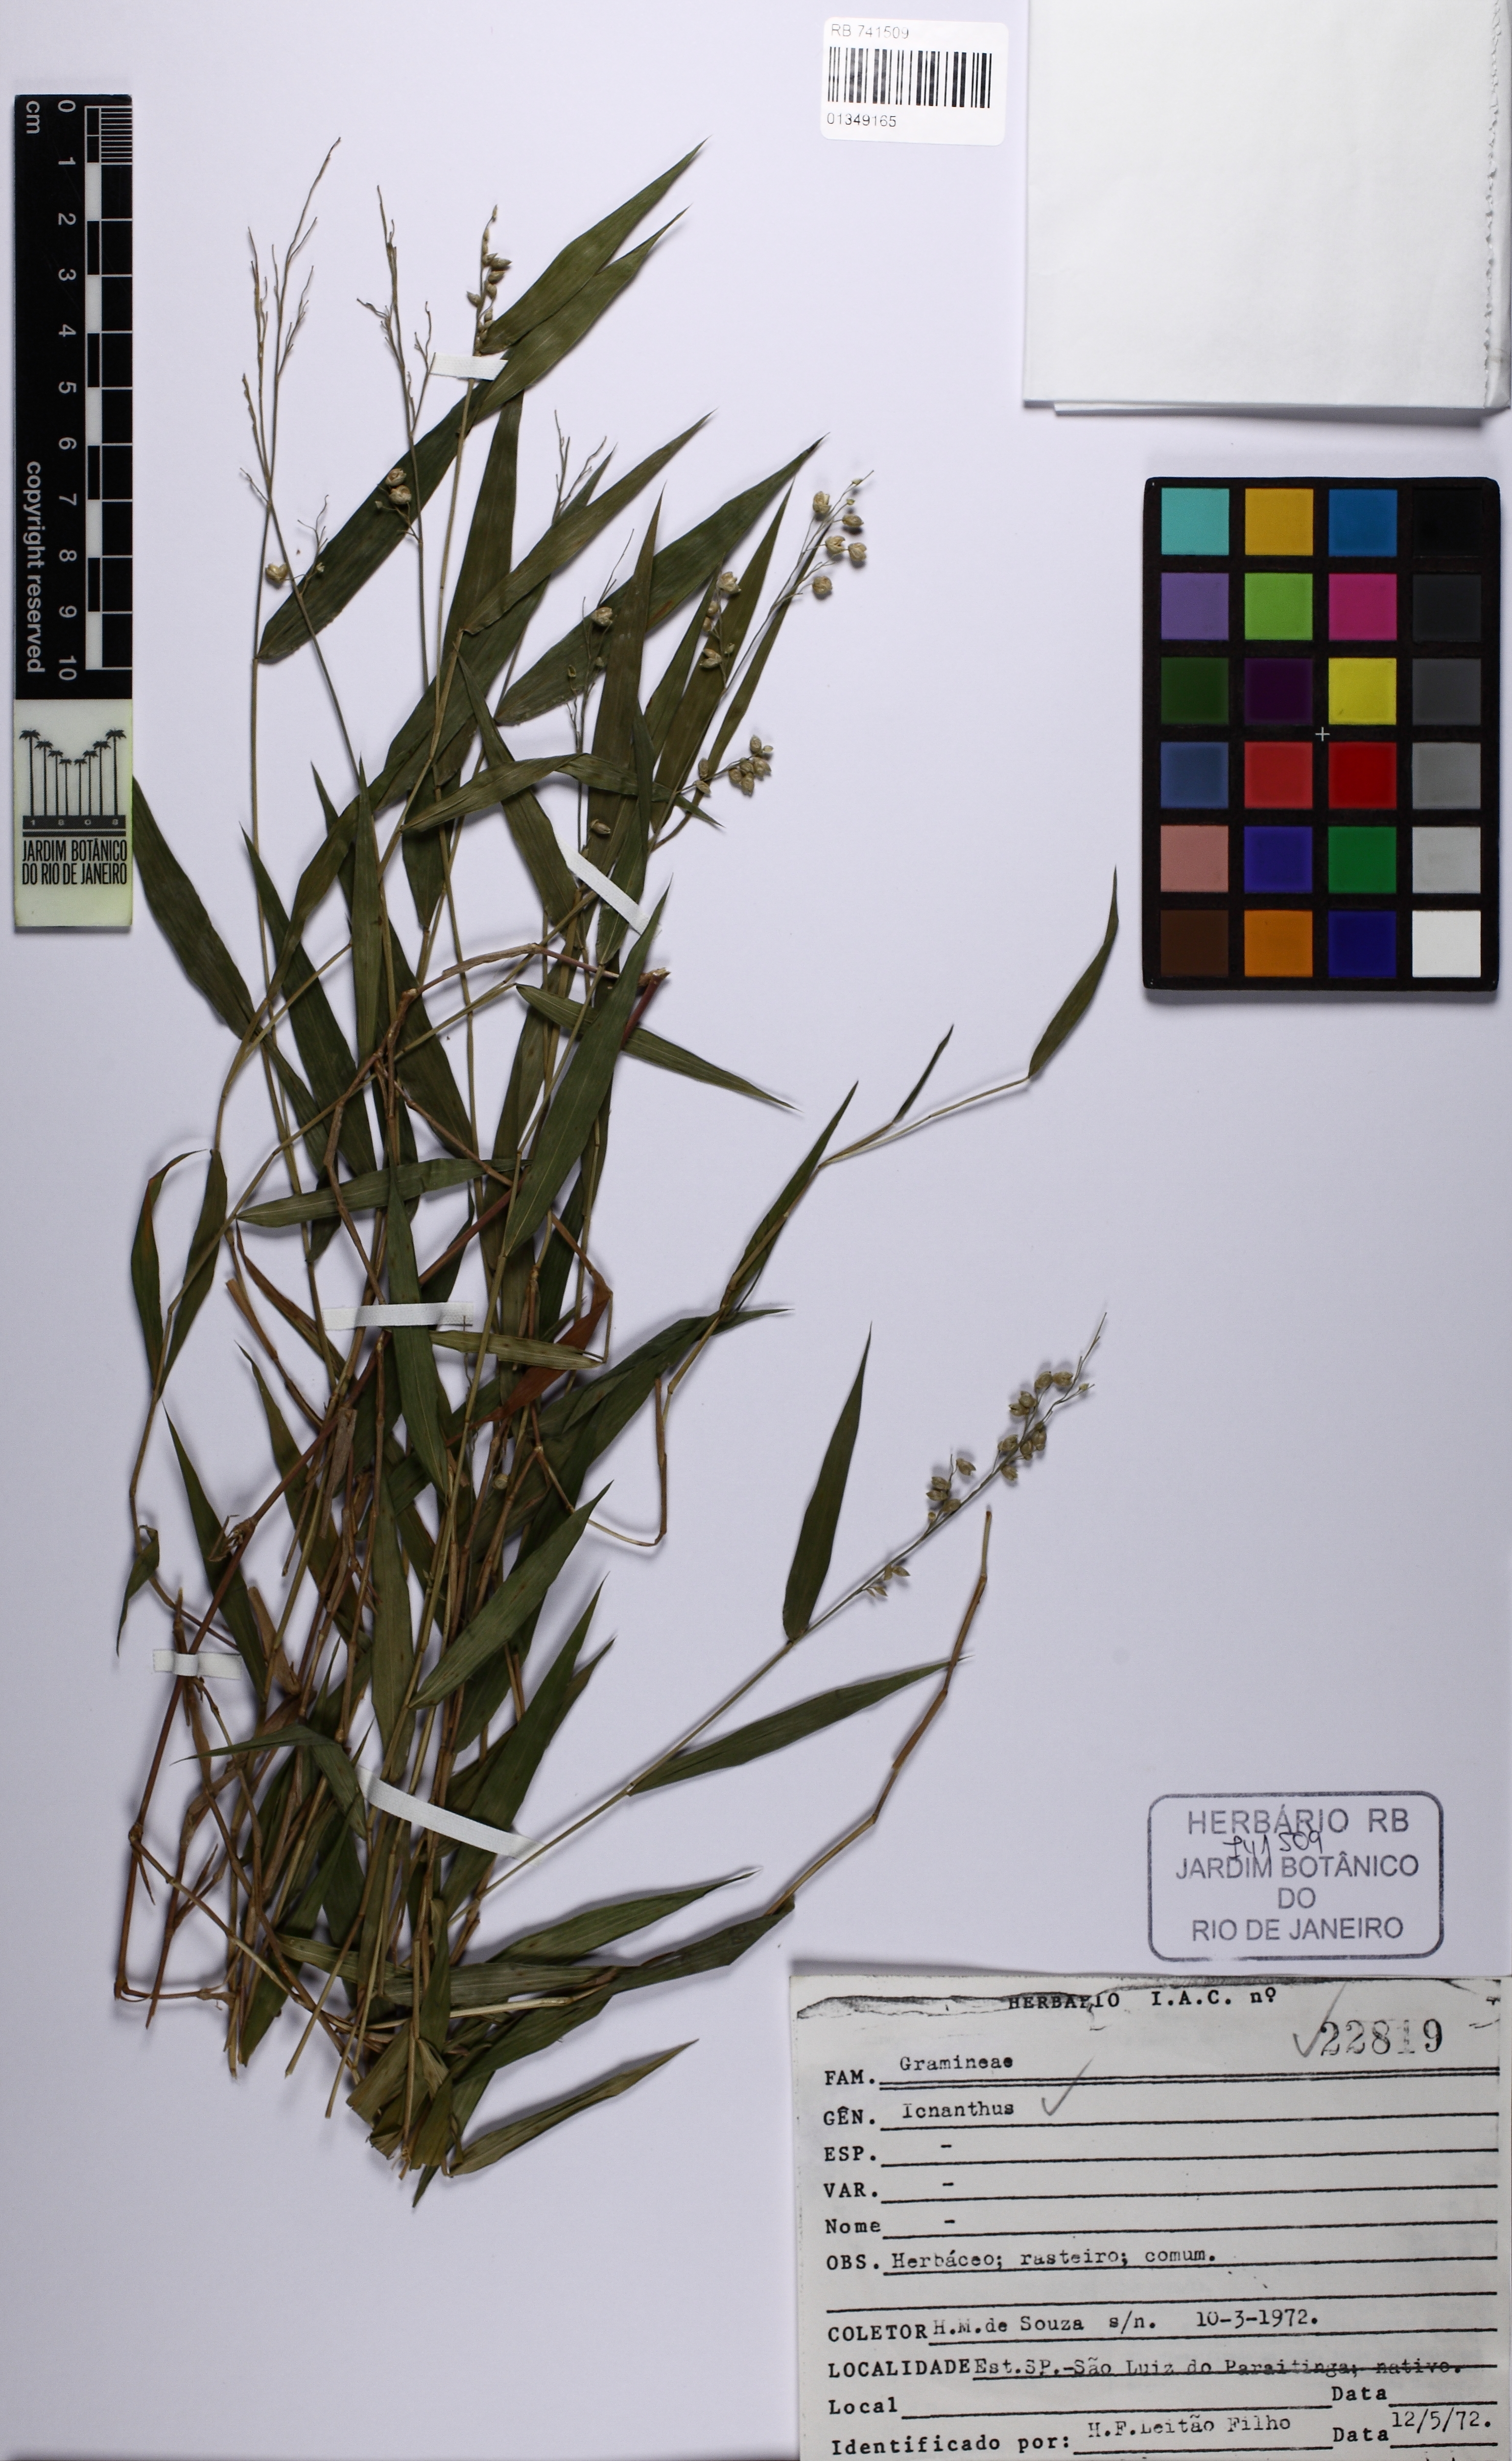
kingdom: Plantae
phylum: Tracheophyta
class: Liliopsida
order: Poales
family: Poaceae
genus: Ichnanthus
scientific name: Ichnanthus
